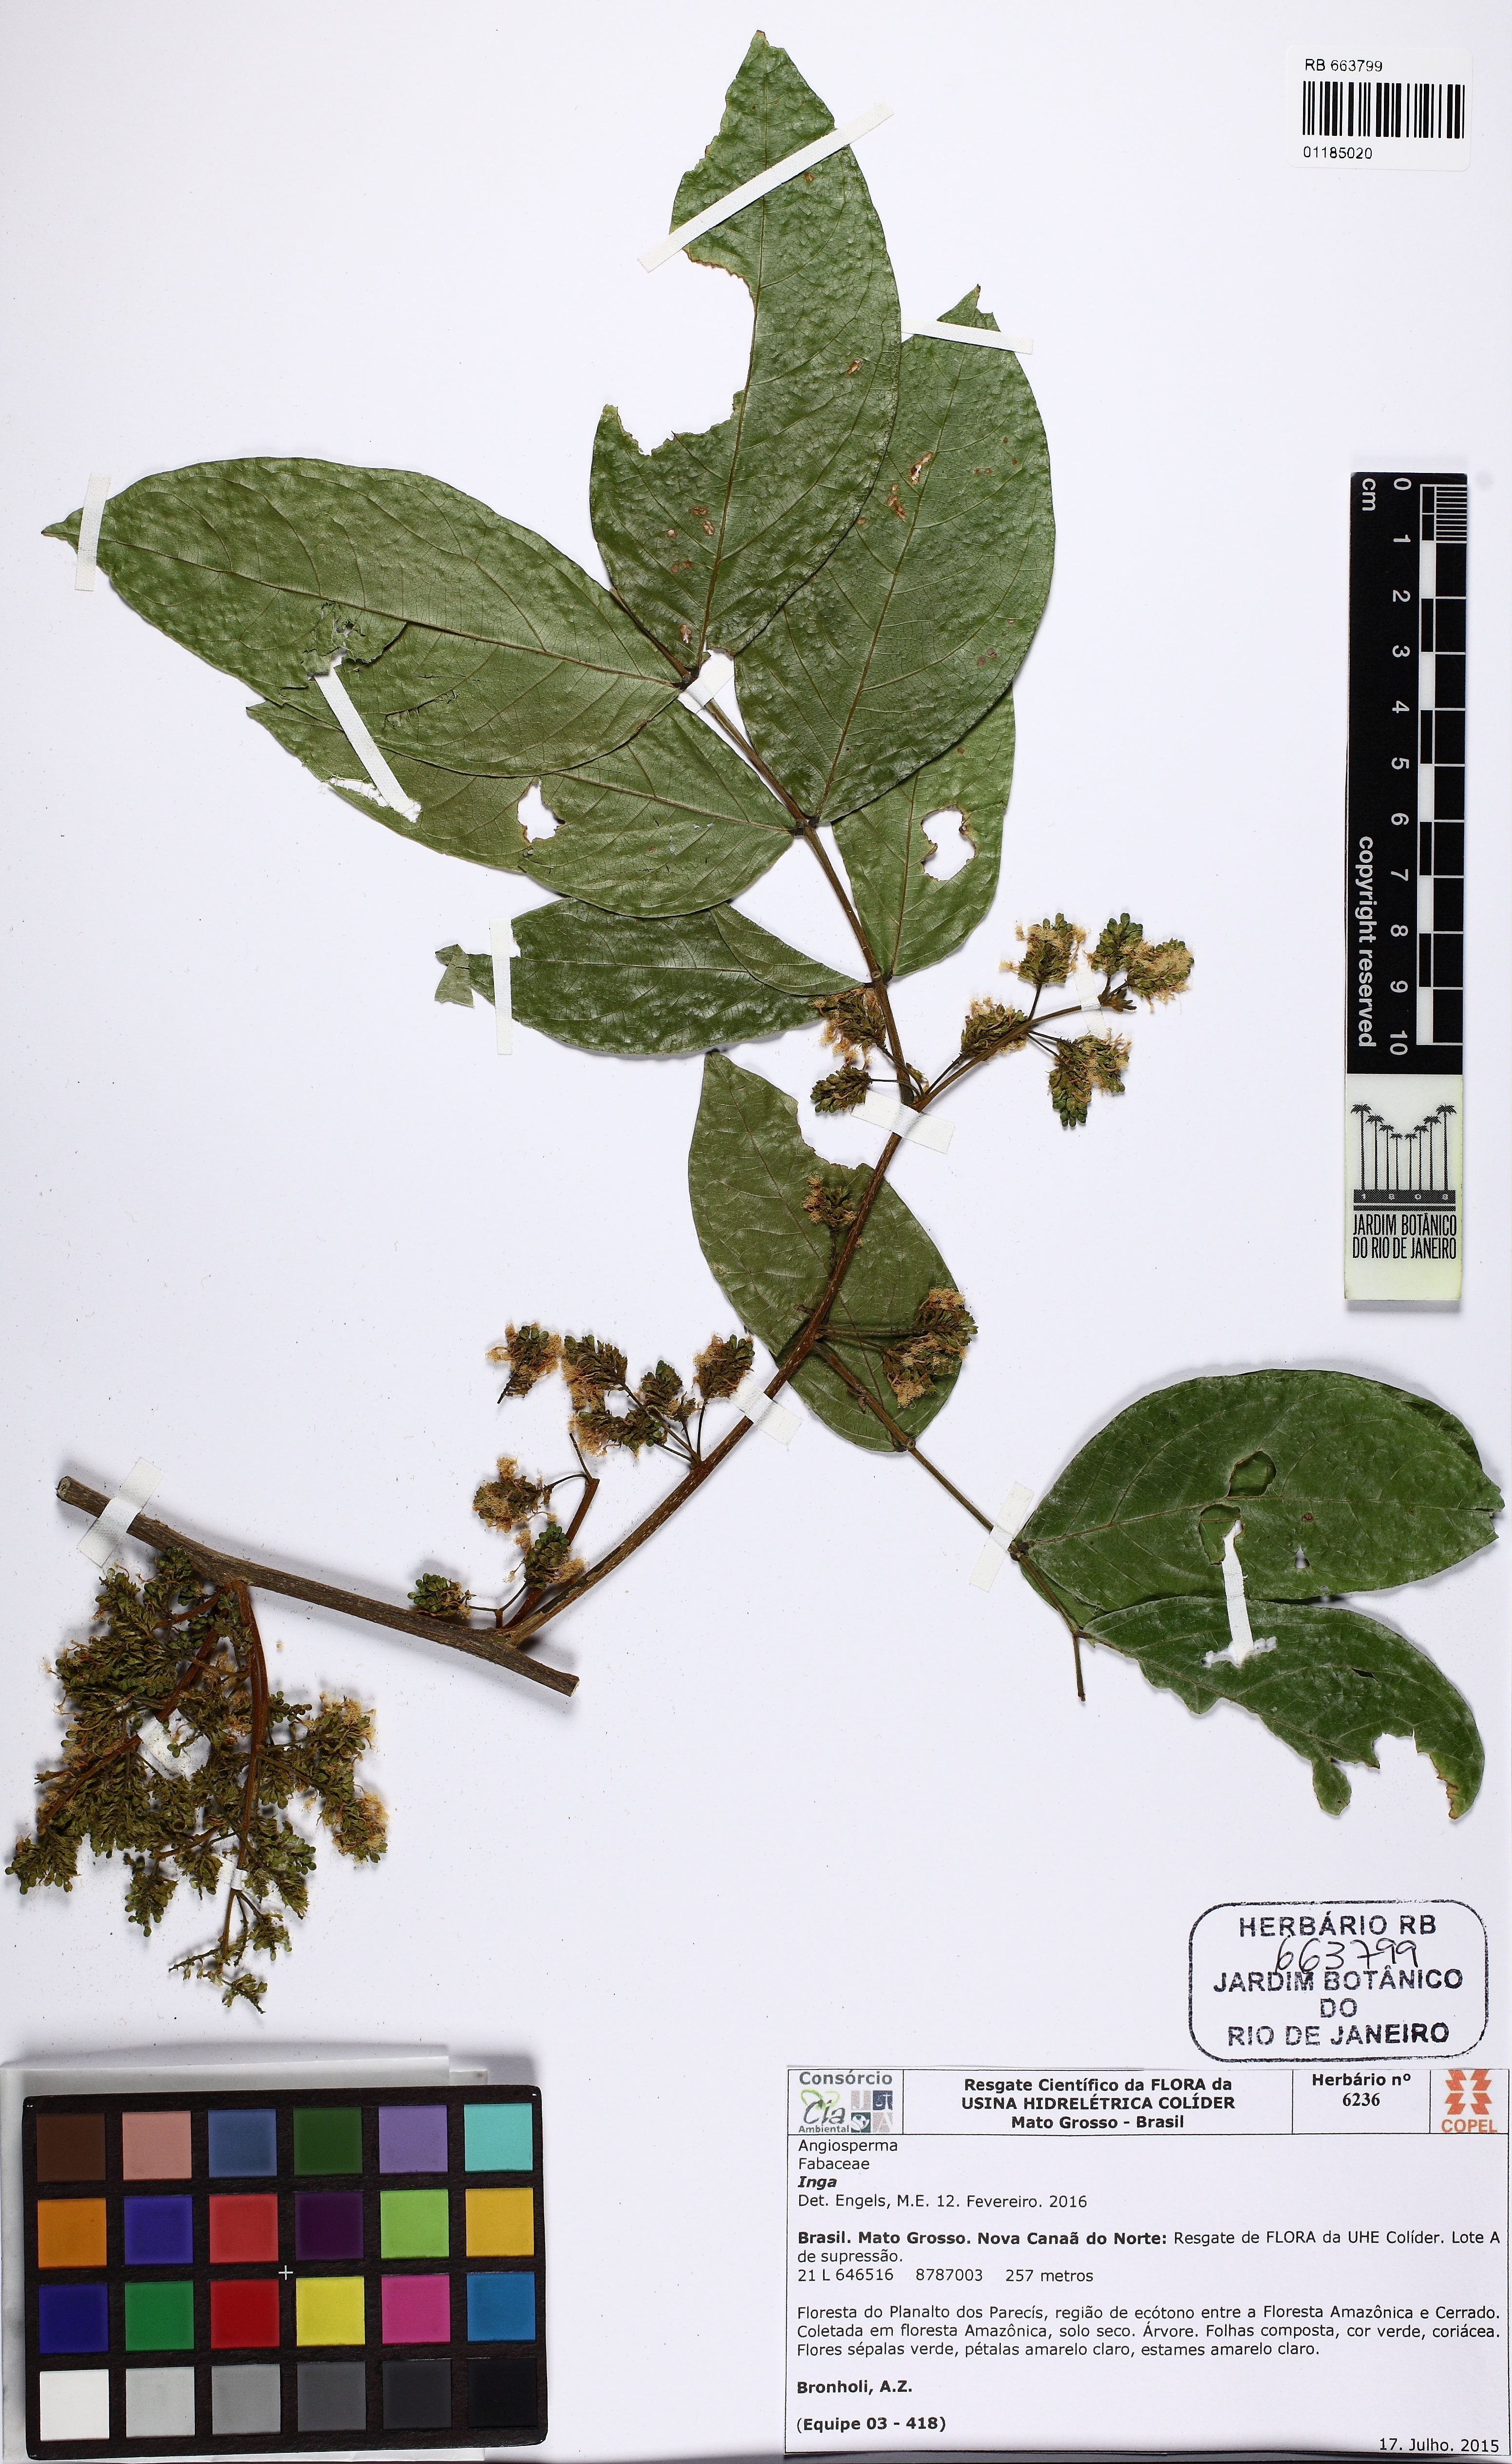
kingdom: Plantae
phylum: Tracheophyta
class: Magnoliopsida
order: Fabales
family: Fabaceae
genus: Inga
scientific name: Inga
